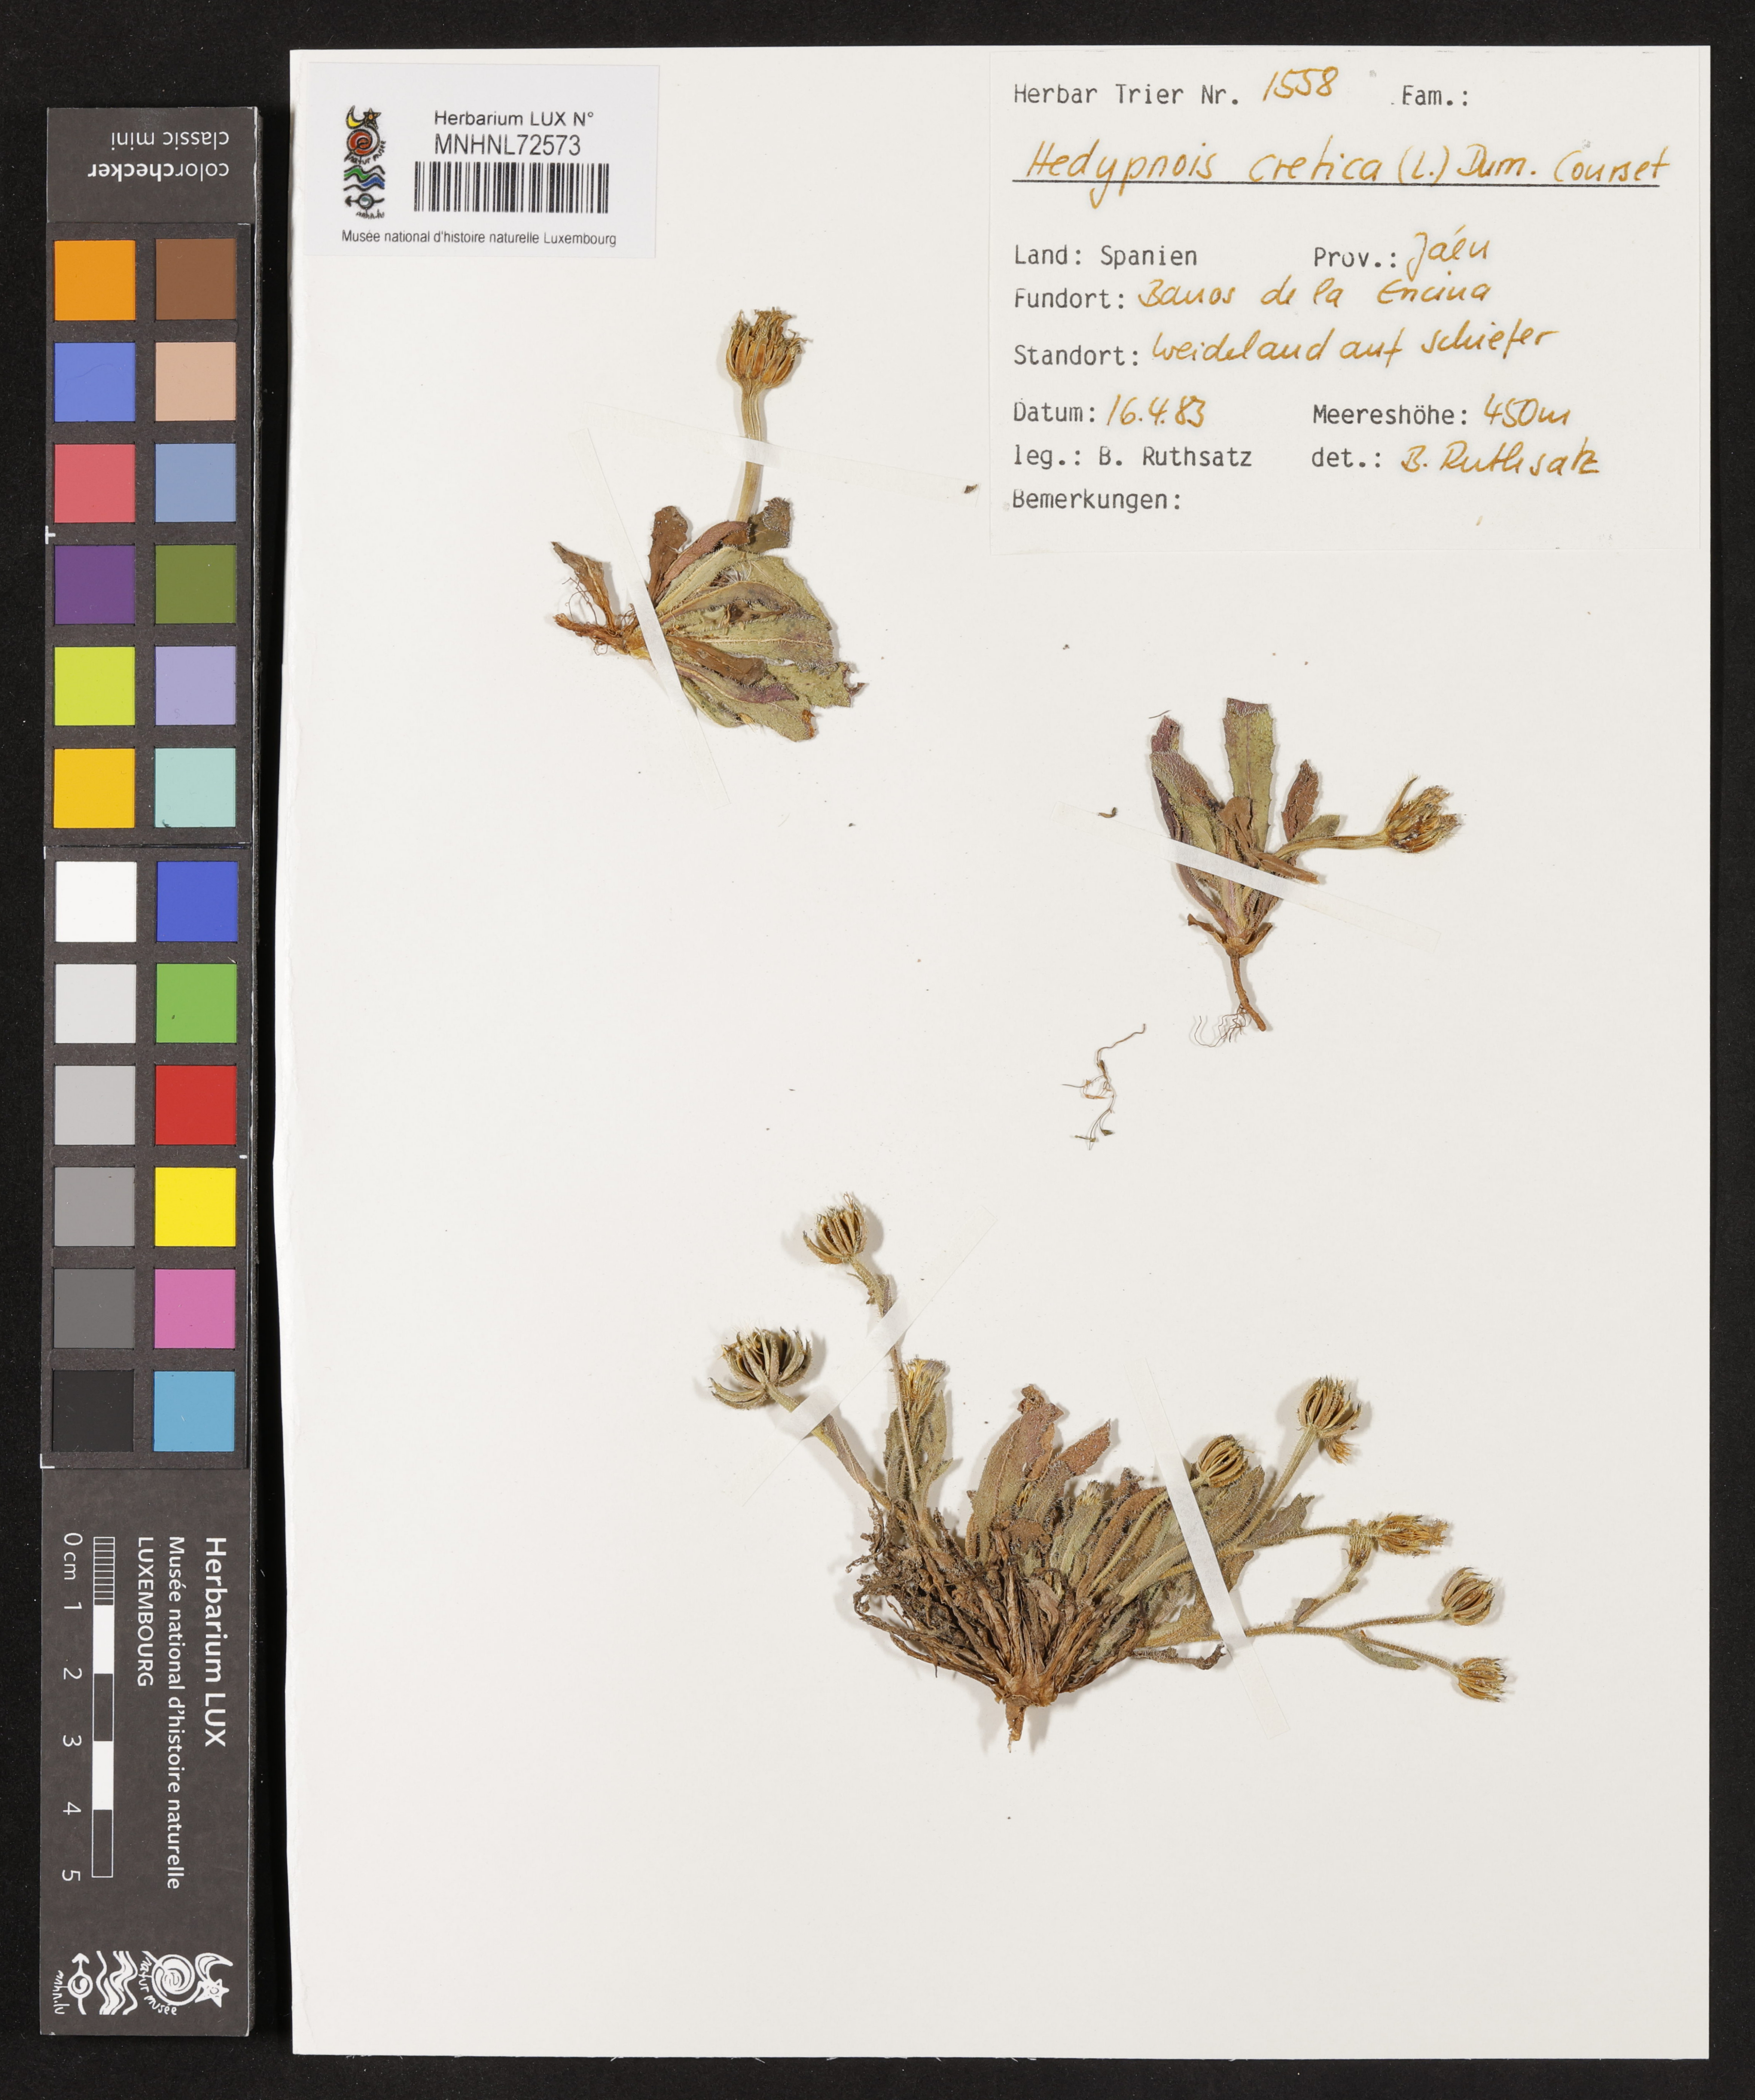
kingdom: Plantae
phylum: Tracheophyta
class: Magnoliopsida
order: Asterales
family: Asteraceae
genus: Hedypnois
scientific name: Hedypnois cretica
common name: Scaly hawkbit
